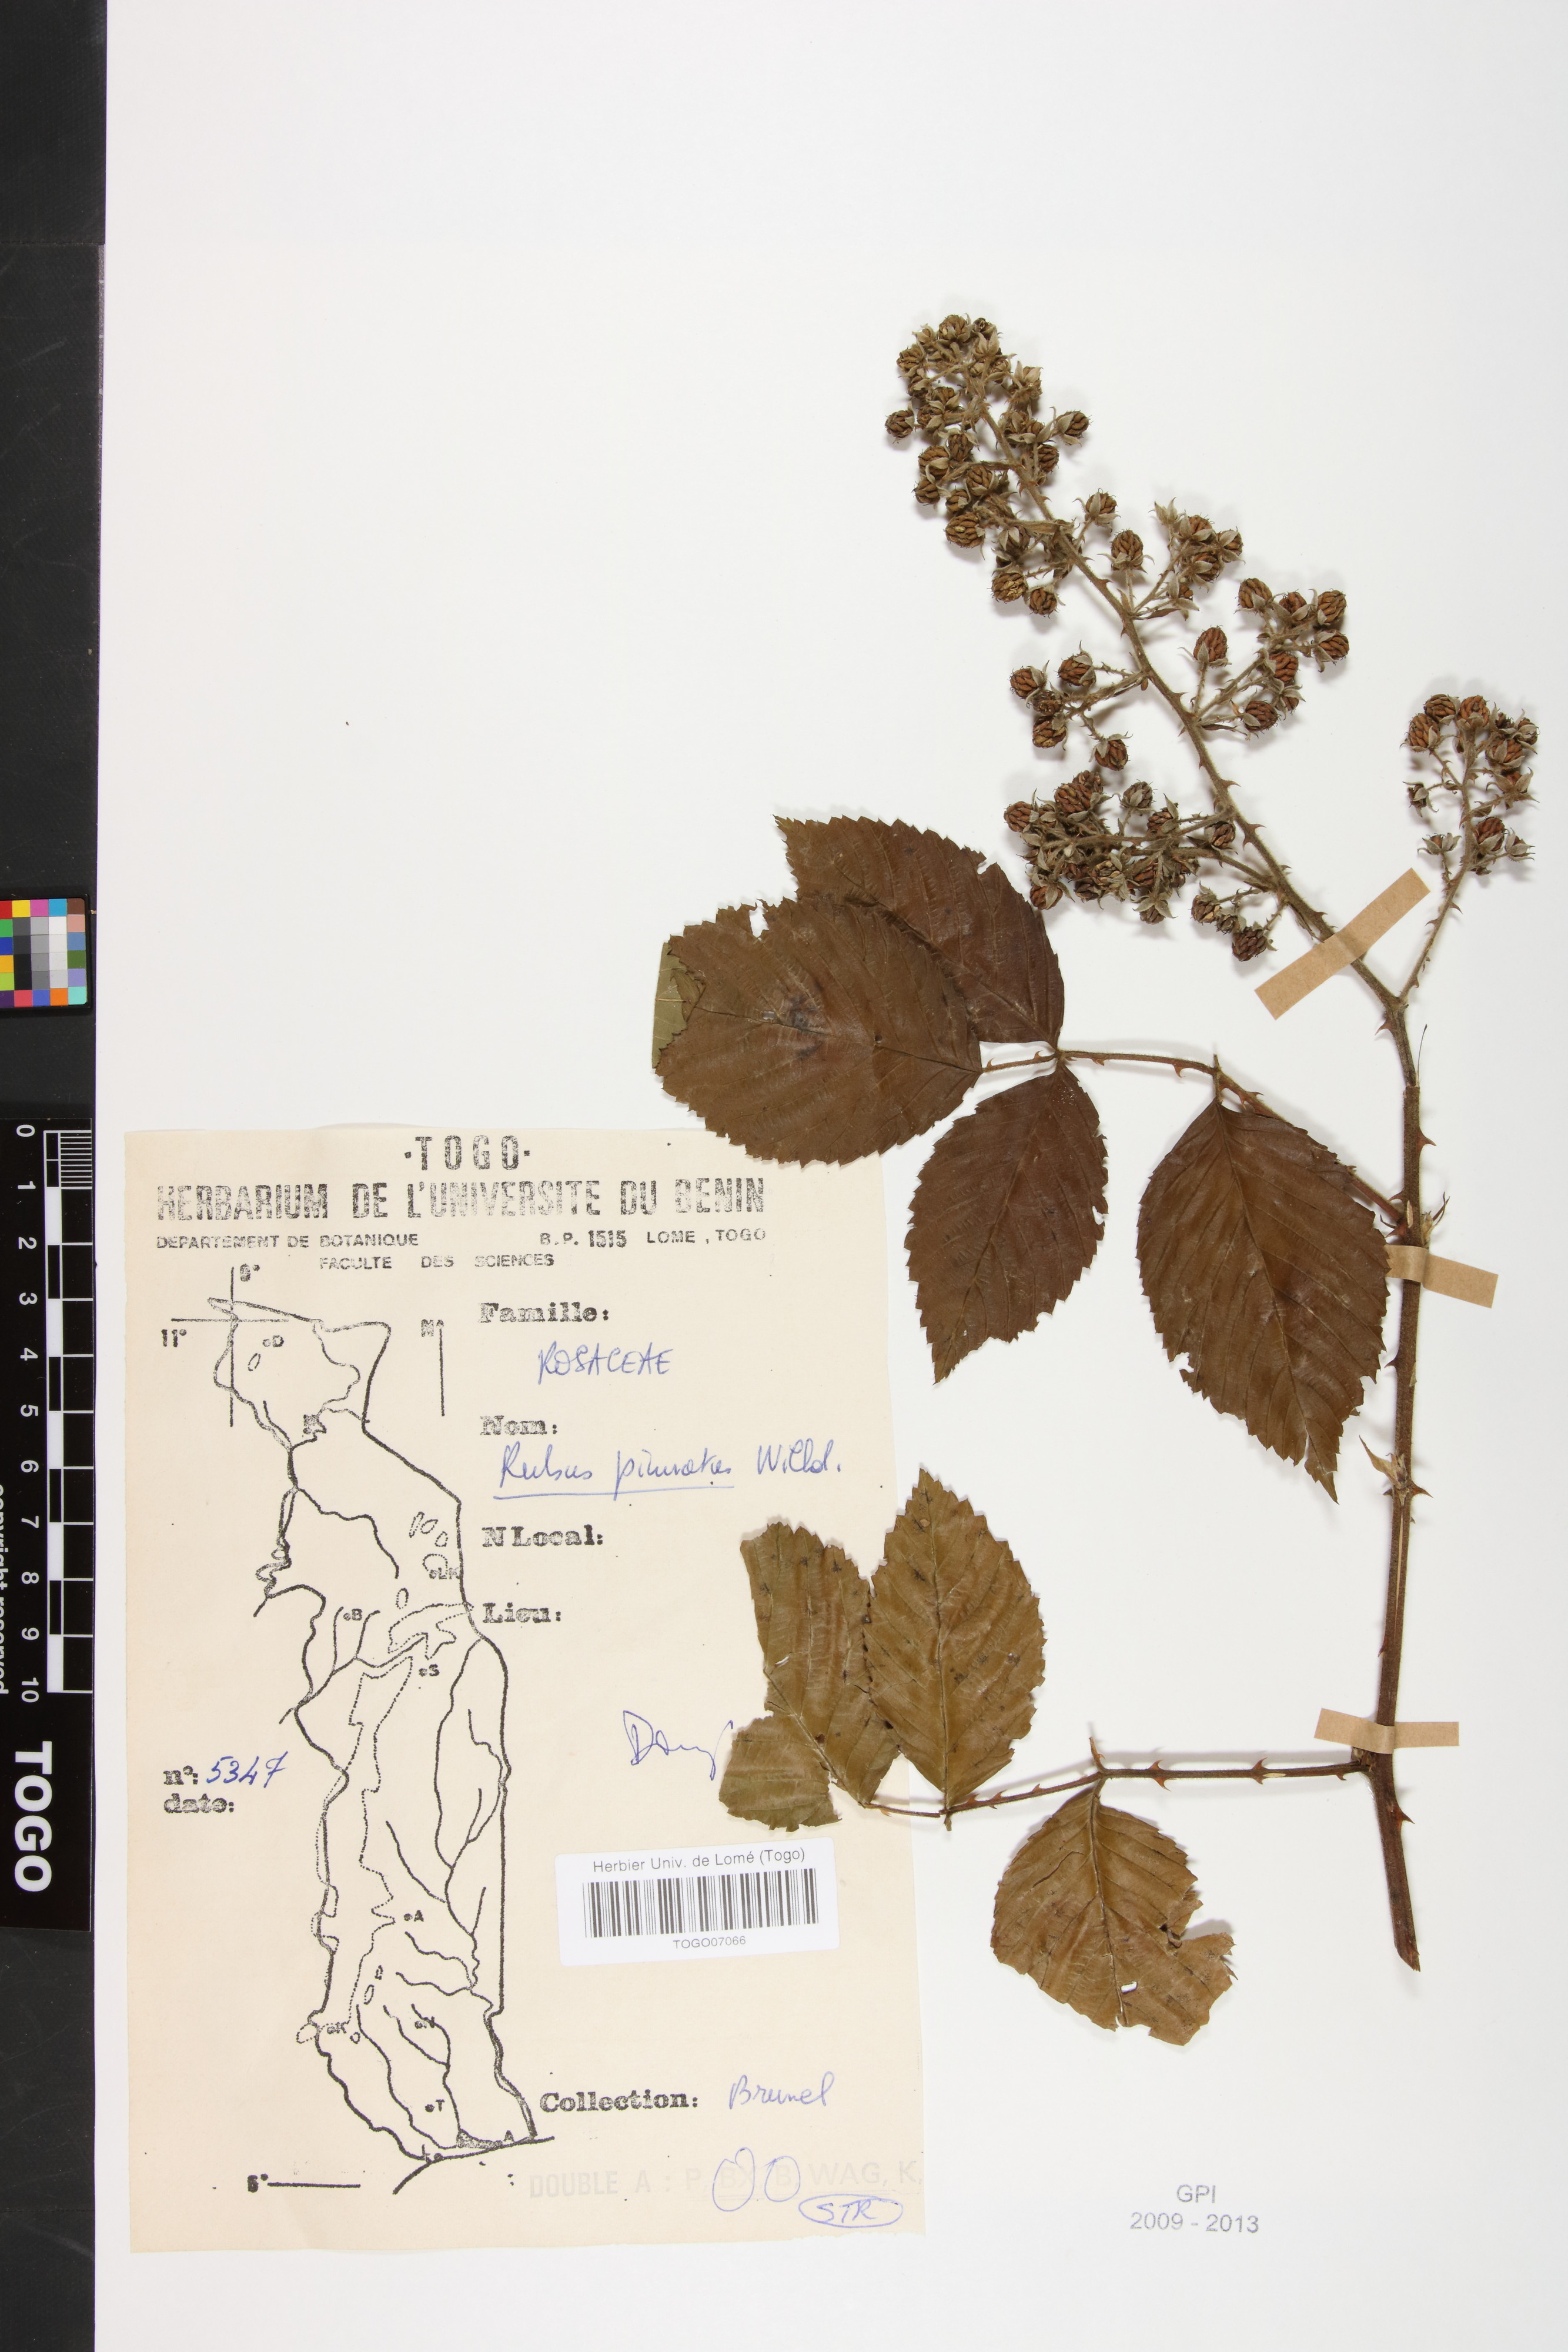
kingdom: Plantae
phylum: Tracheophyta
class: Magnoliopsida
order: Rosales
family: Rosaceae
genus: Rubus
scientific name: Rubus pinnatus
